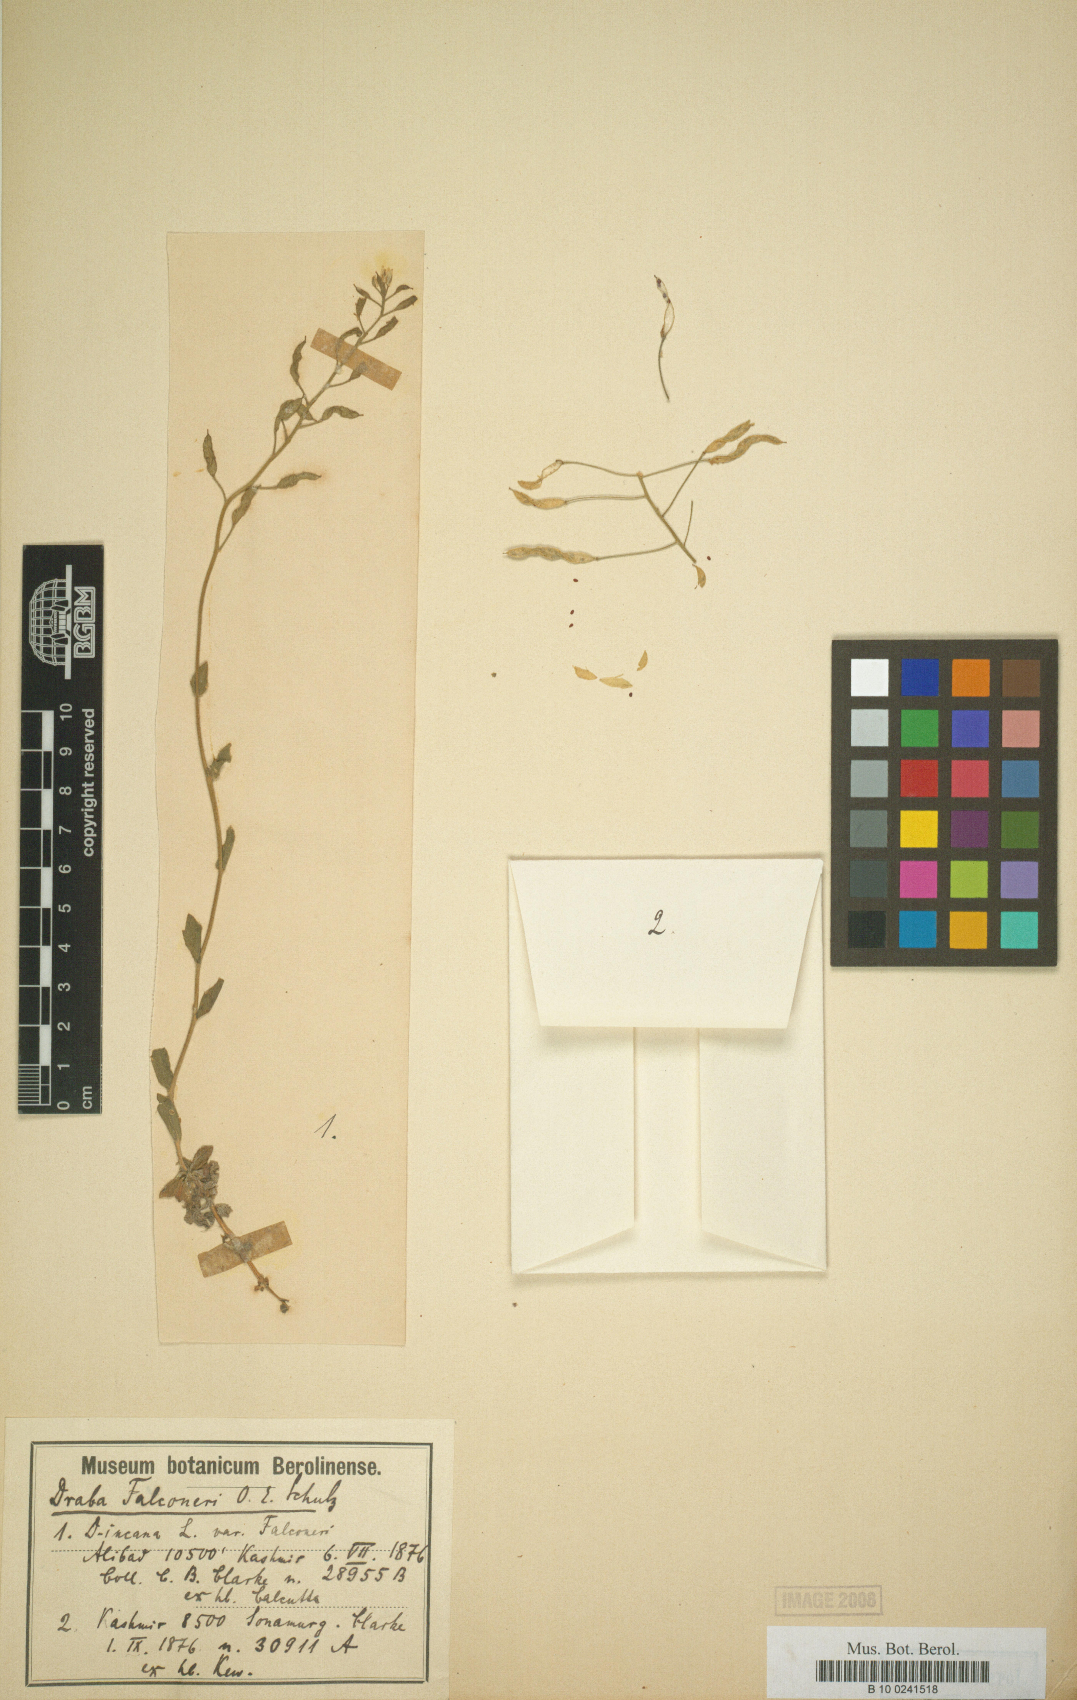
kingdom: Plantae
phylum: Tracheophyta
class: Magnoliopsida
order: Brassicales
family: Brassicaceae
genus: Draba
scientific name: Draba falconeri
